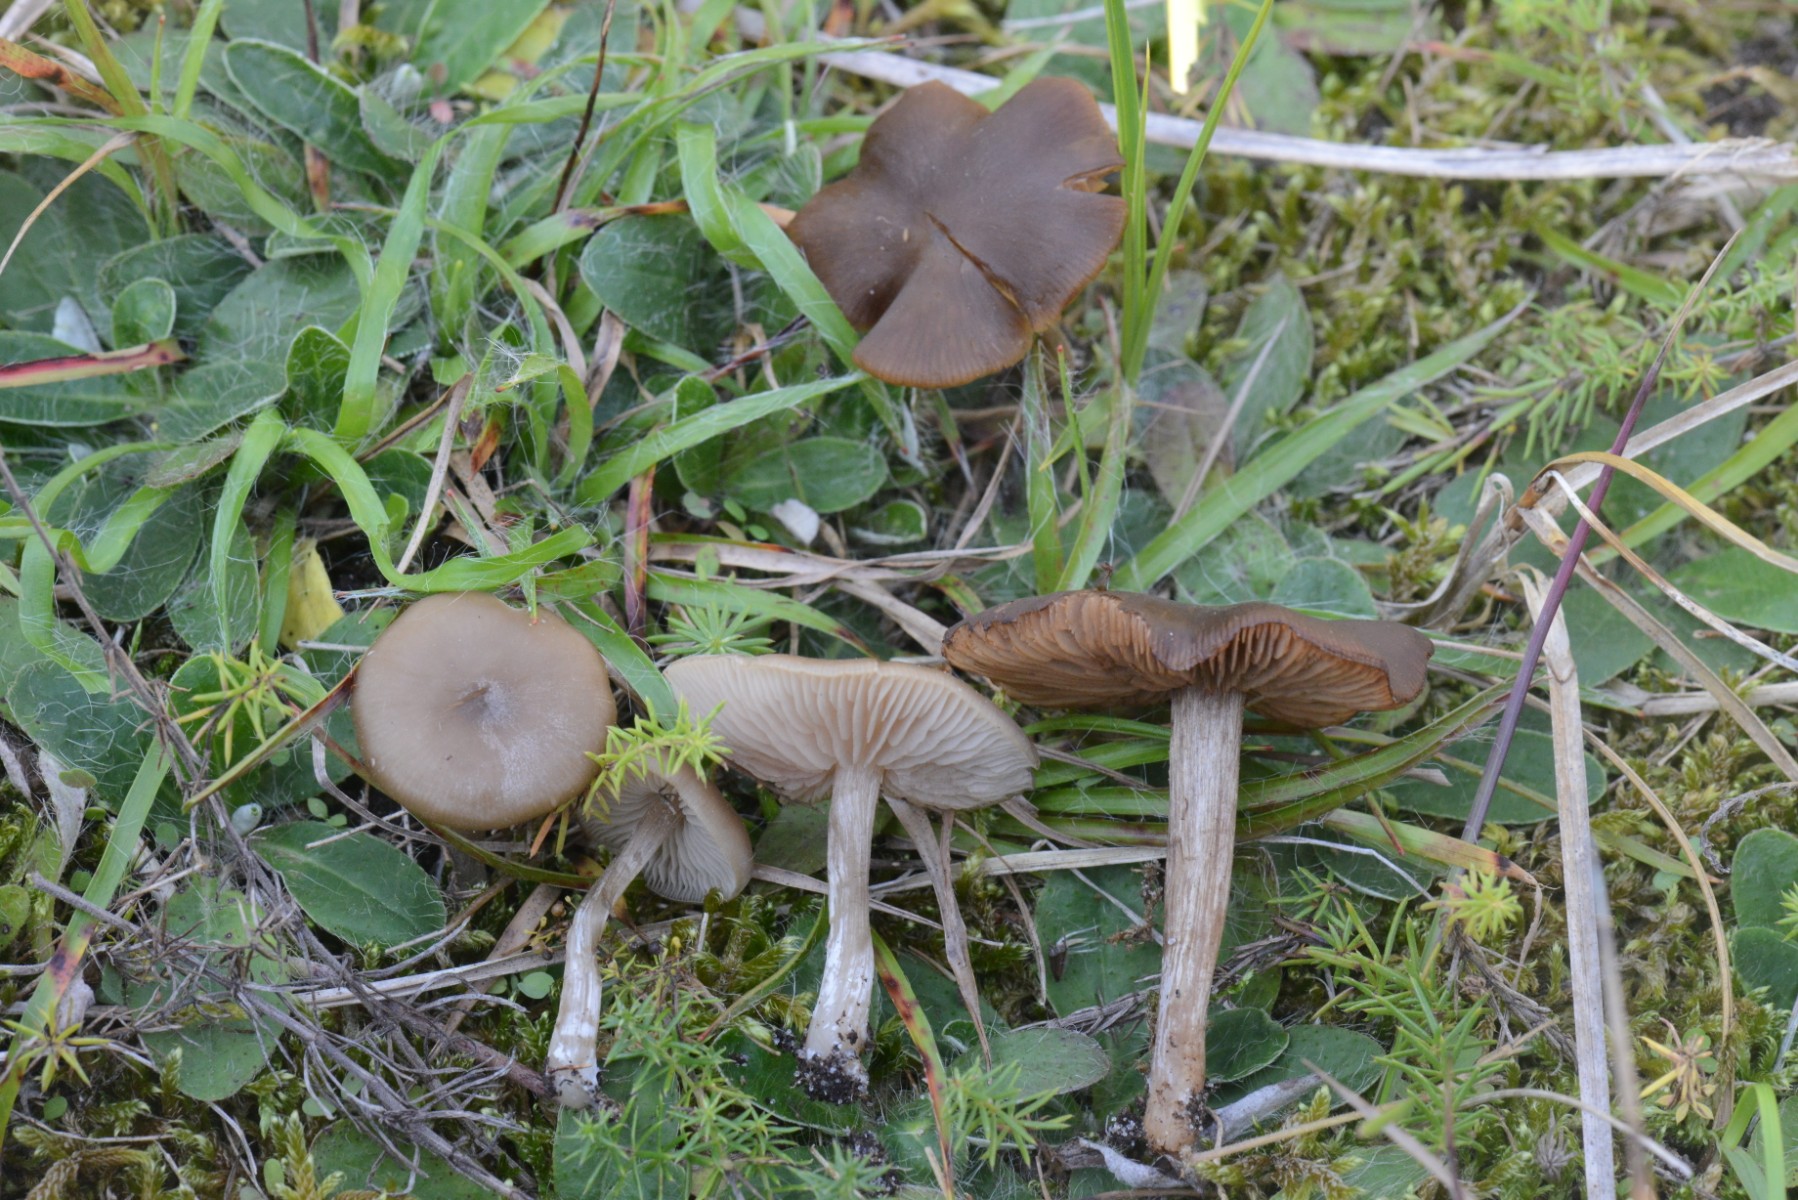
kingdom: Fungi
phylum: Basidiomycota
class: Agaricomycetes
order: Agaricales
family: Entolomataceae
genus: Entoloma
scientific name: Entoloma sericeum
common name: silkeglinsende rødblad
